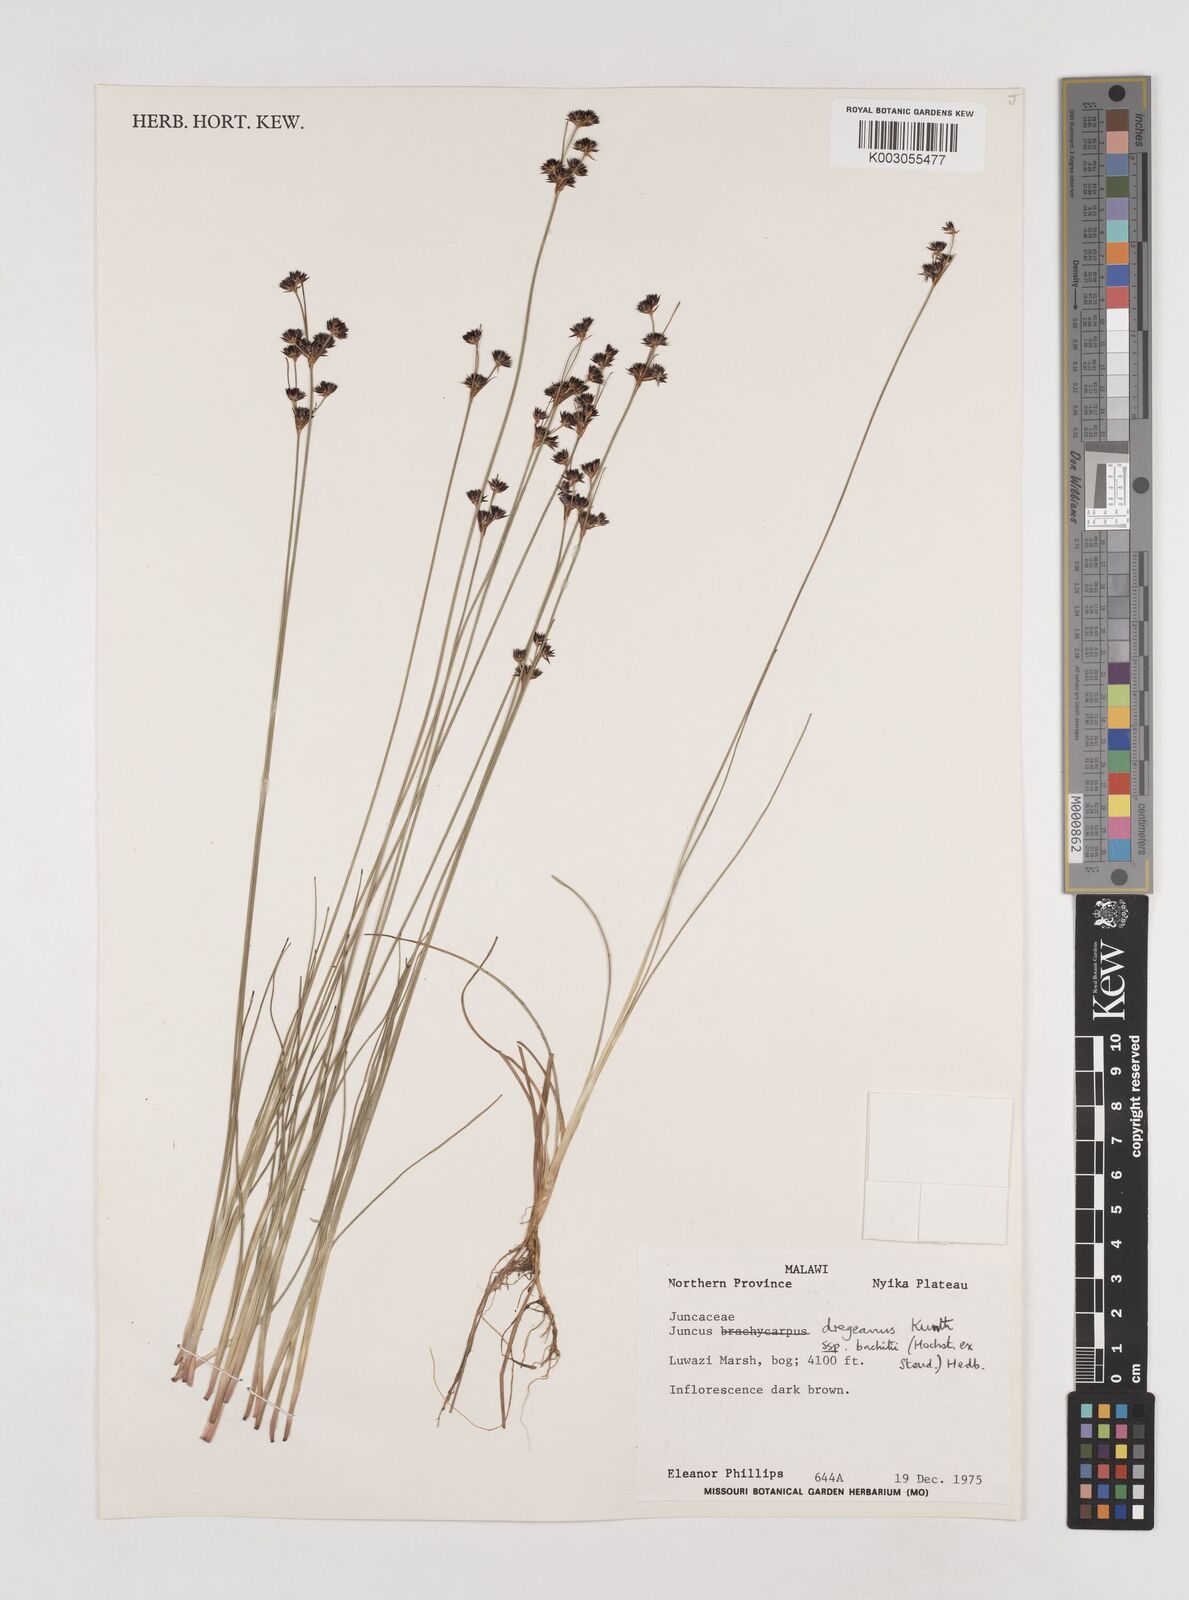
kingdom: Plantae
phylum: Tracheophyta
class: Liliopsida
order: Poales
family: Juncaceae
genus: Juncus
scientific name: Juncus dregeanus
